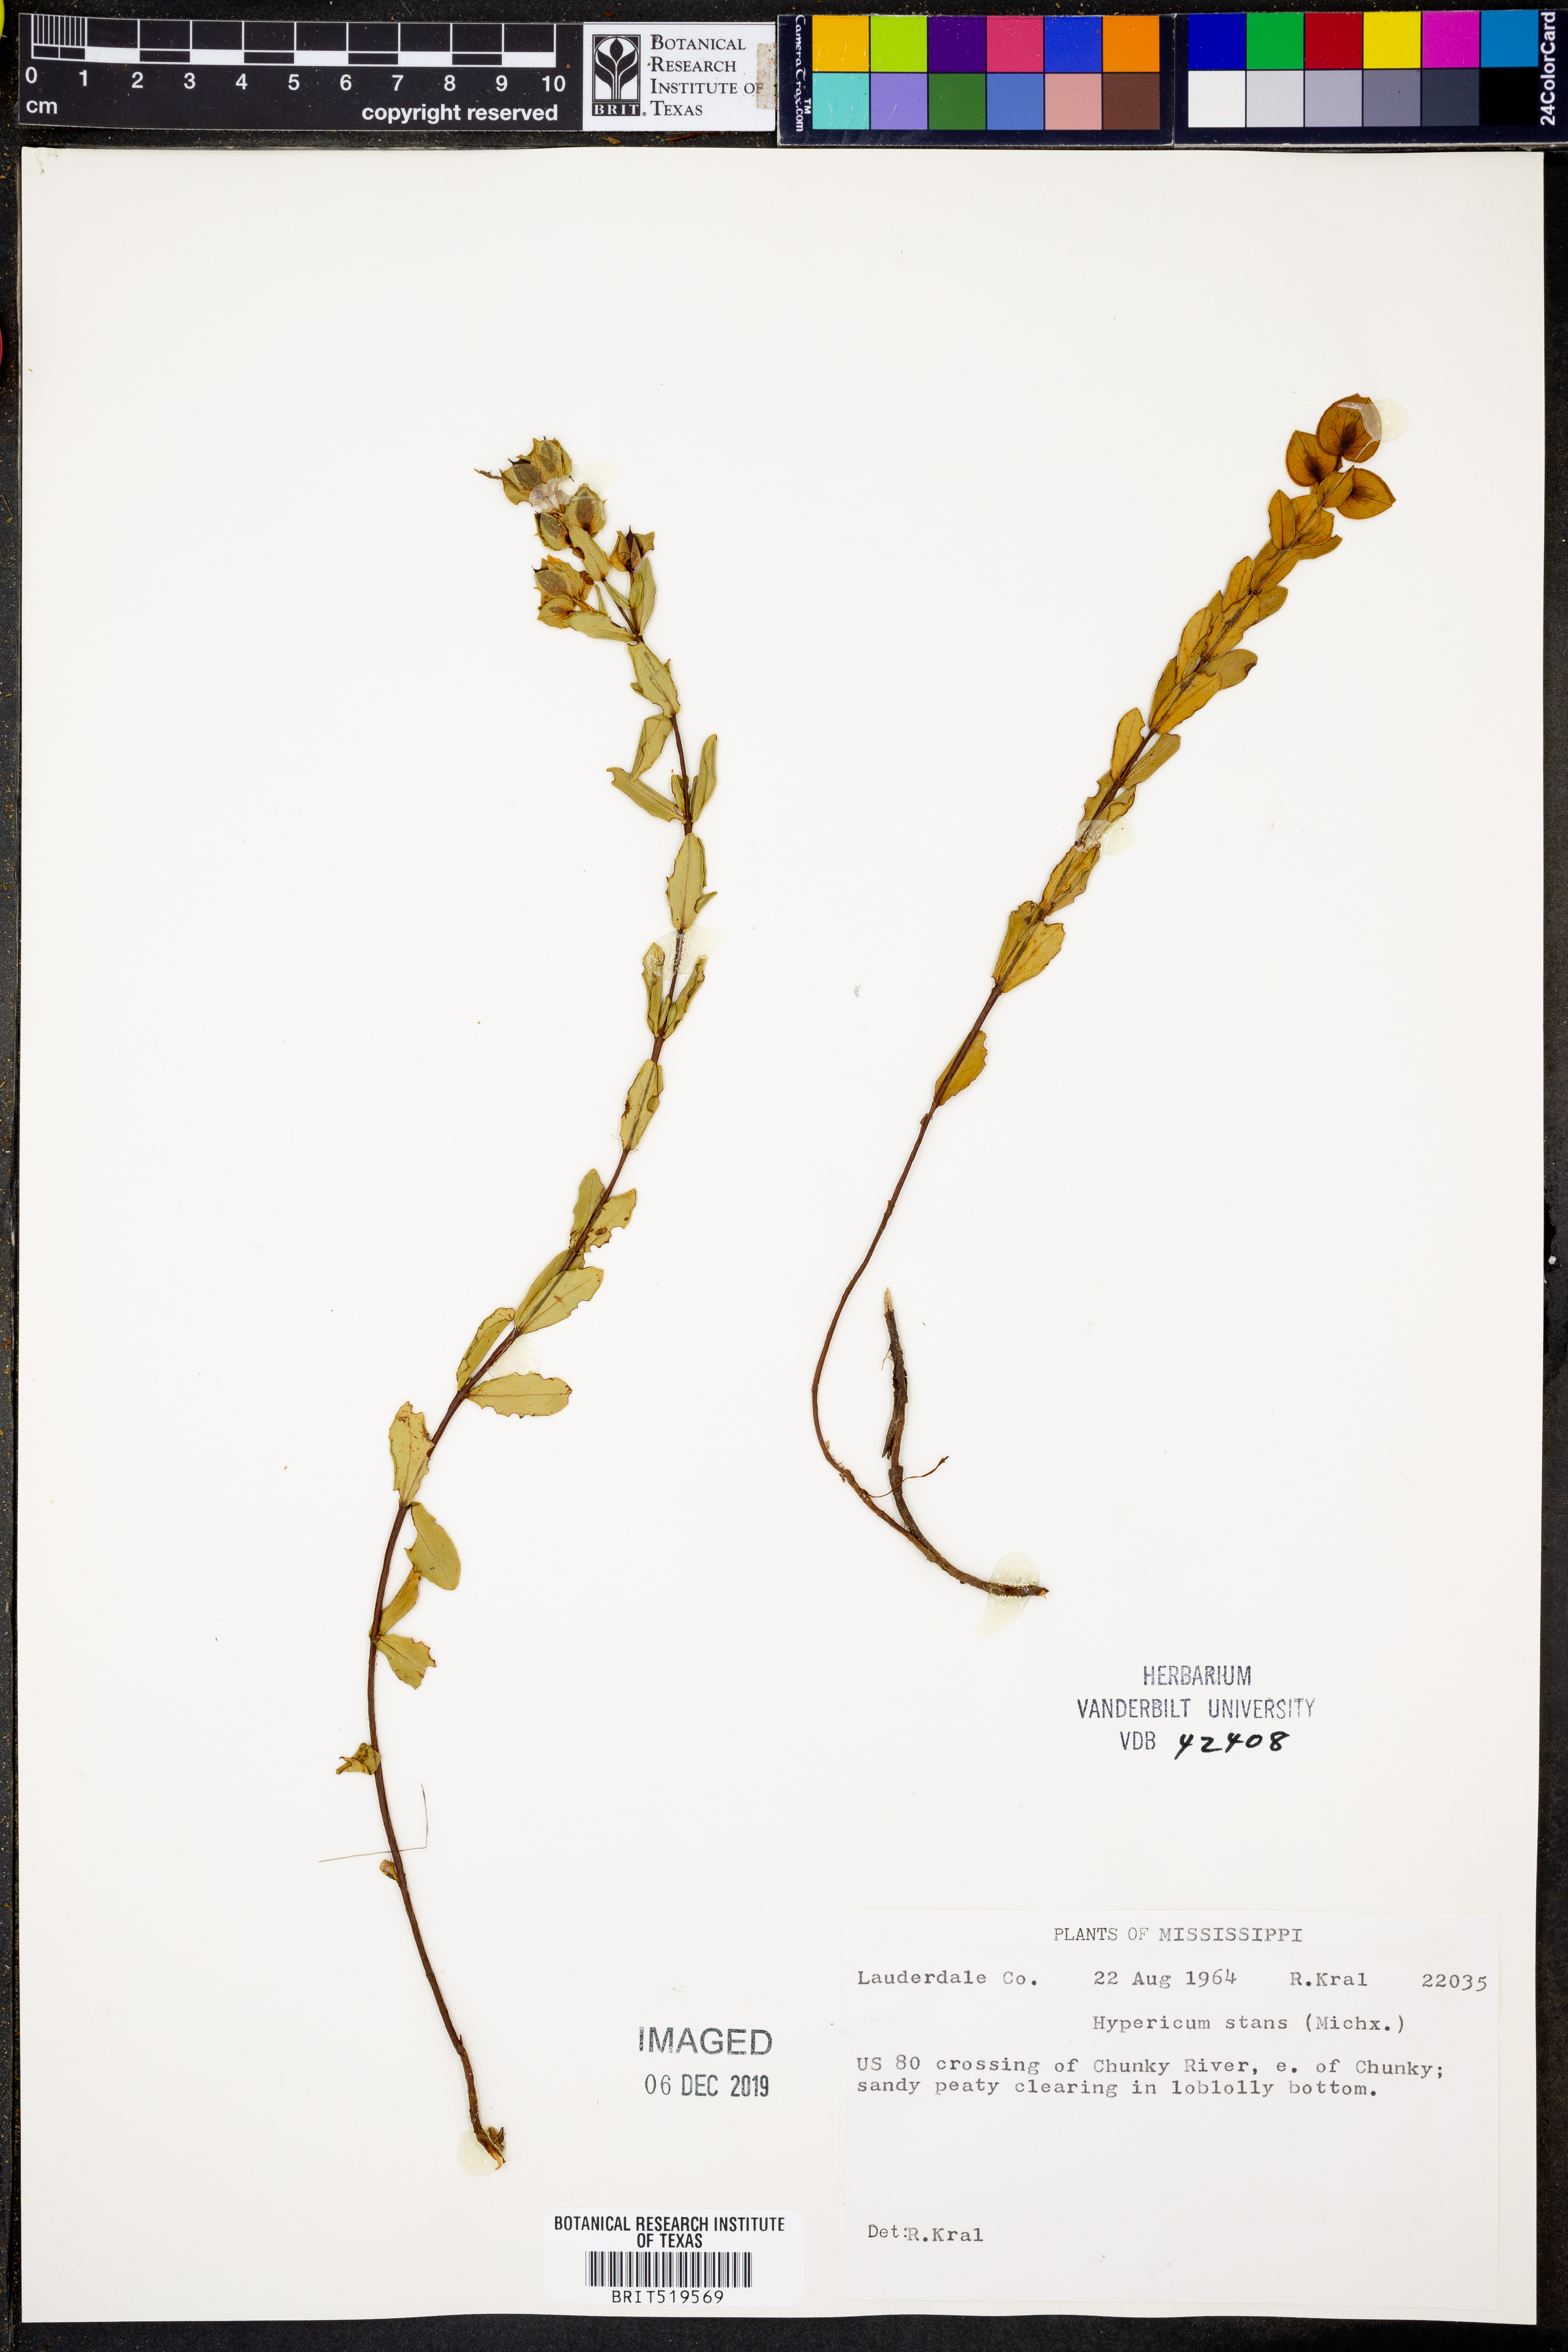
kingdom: Plantae
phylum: Tracheophyta
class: Magnoliopsida
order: Malpighiales
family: Hypericaceae
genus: Hypericum
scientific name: Hypericum crux-andreae
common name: St.-peter's-wort
